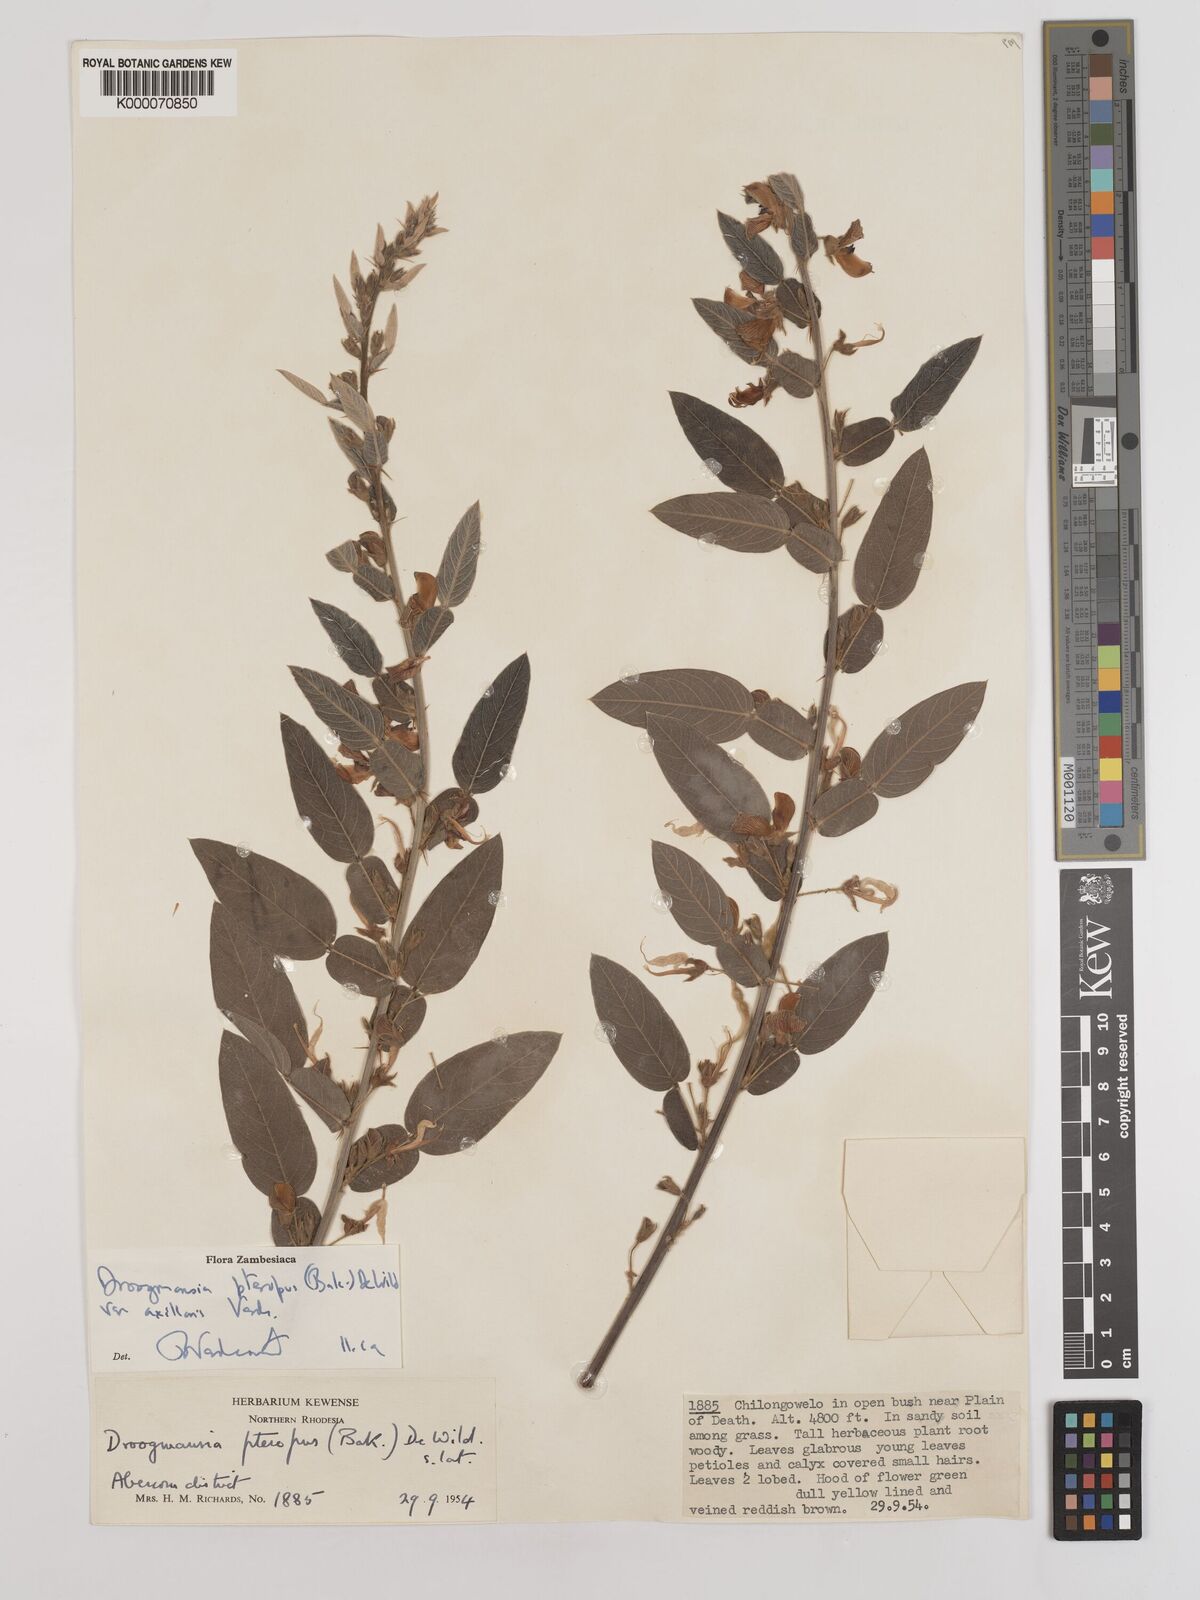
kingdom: Plantae
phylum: Tracheophyta
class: Magnoliopsida
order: Fabales
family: Fabaceae
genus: Droogmansia
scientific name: Droogmansia pteropus
